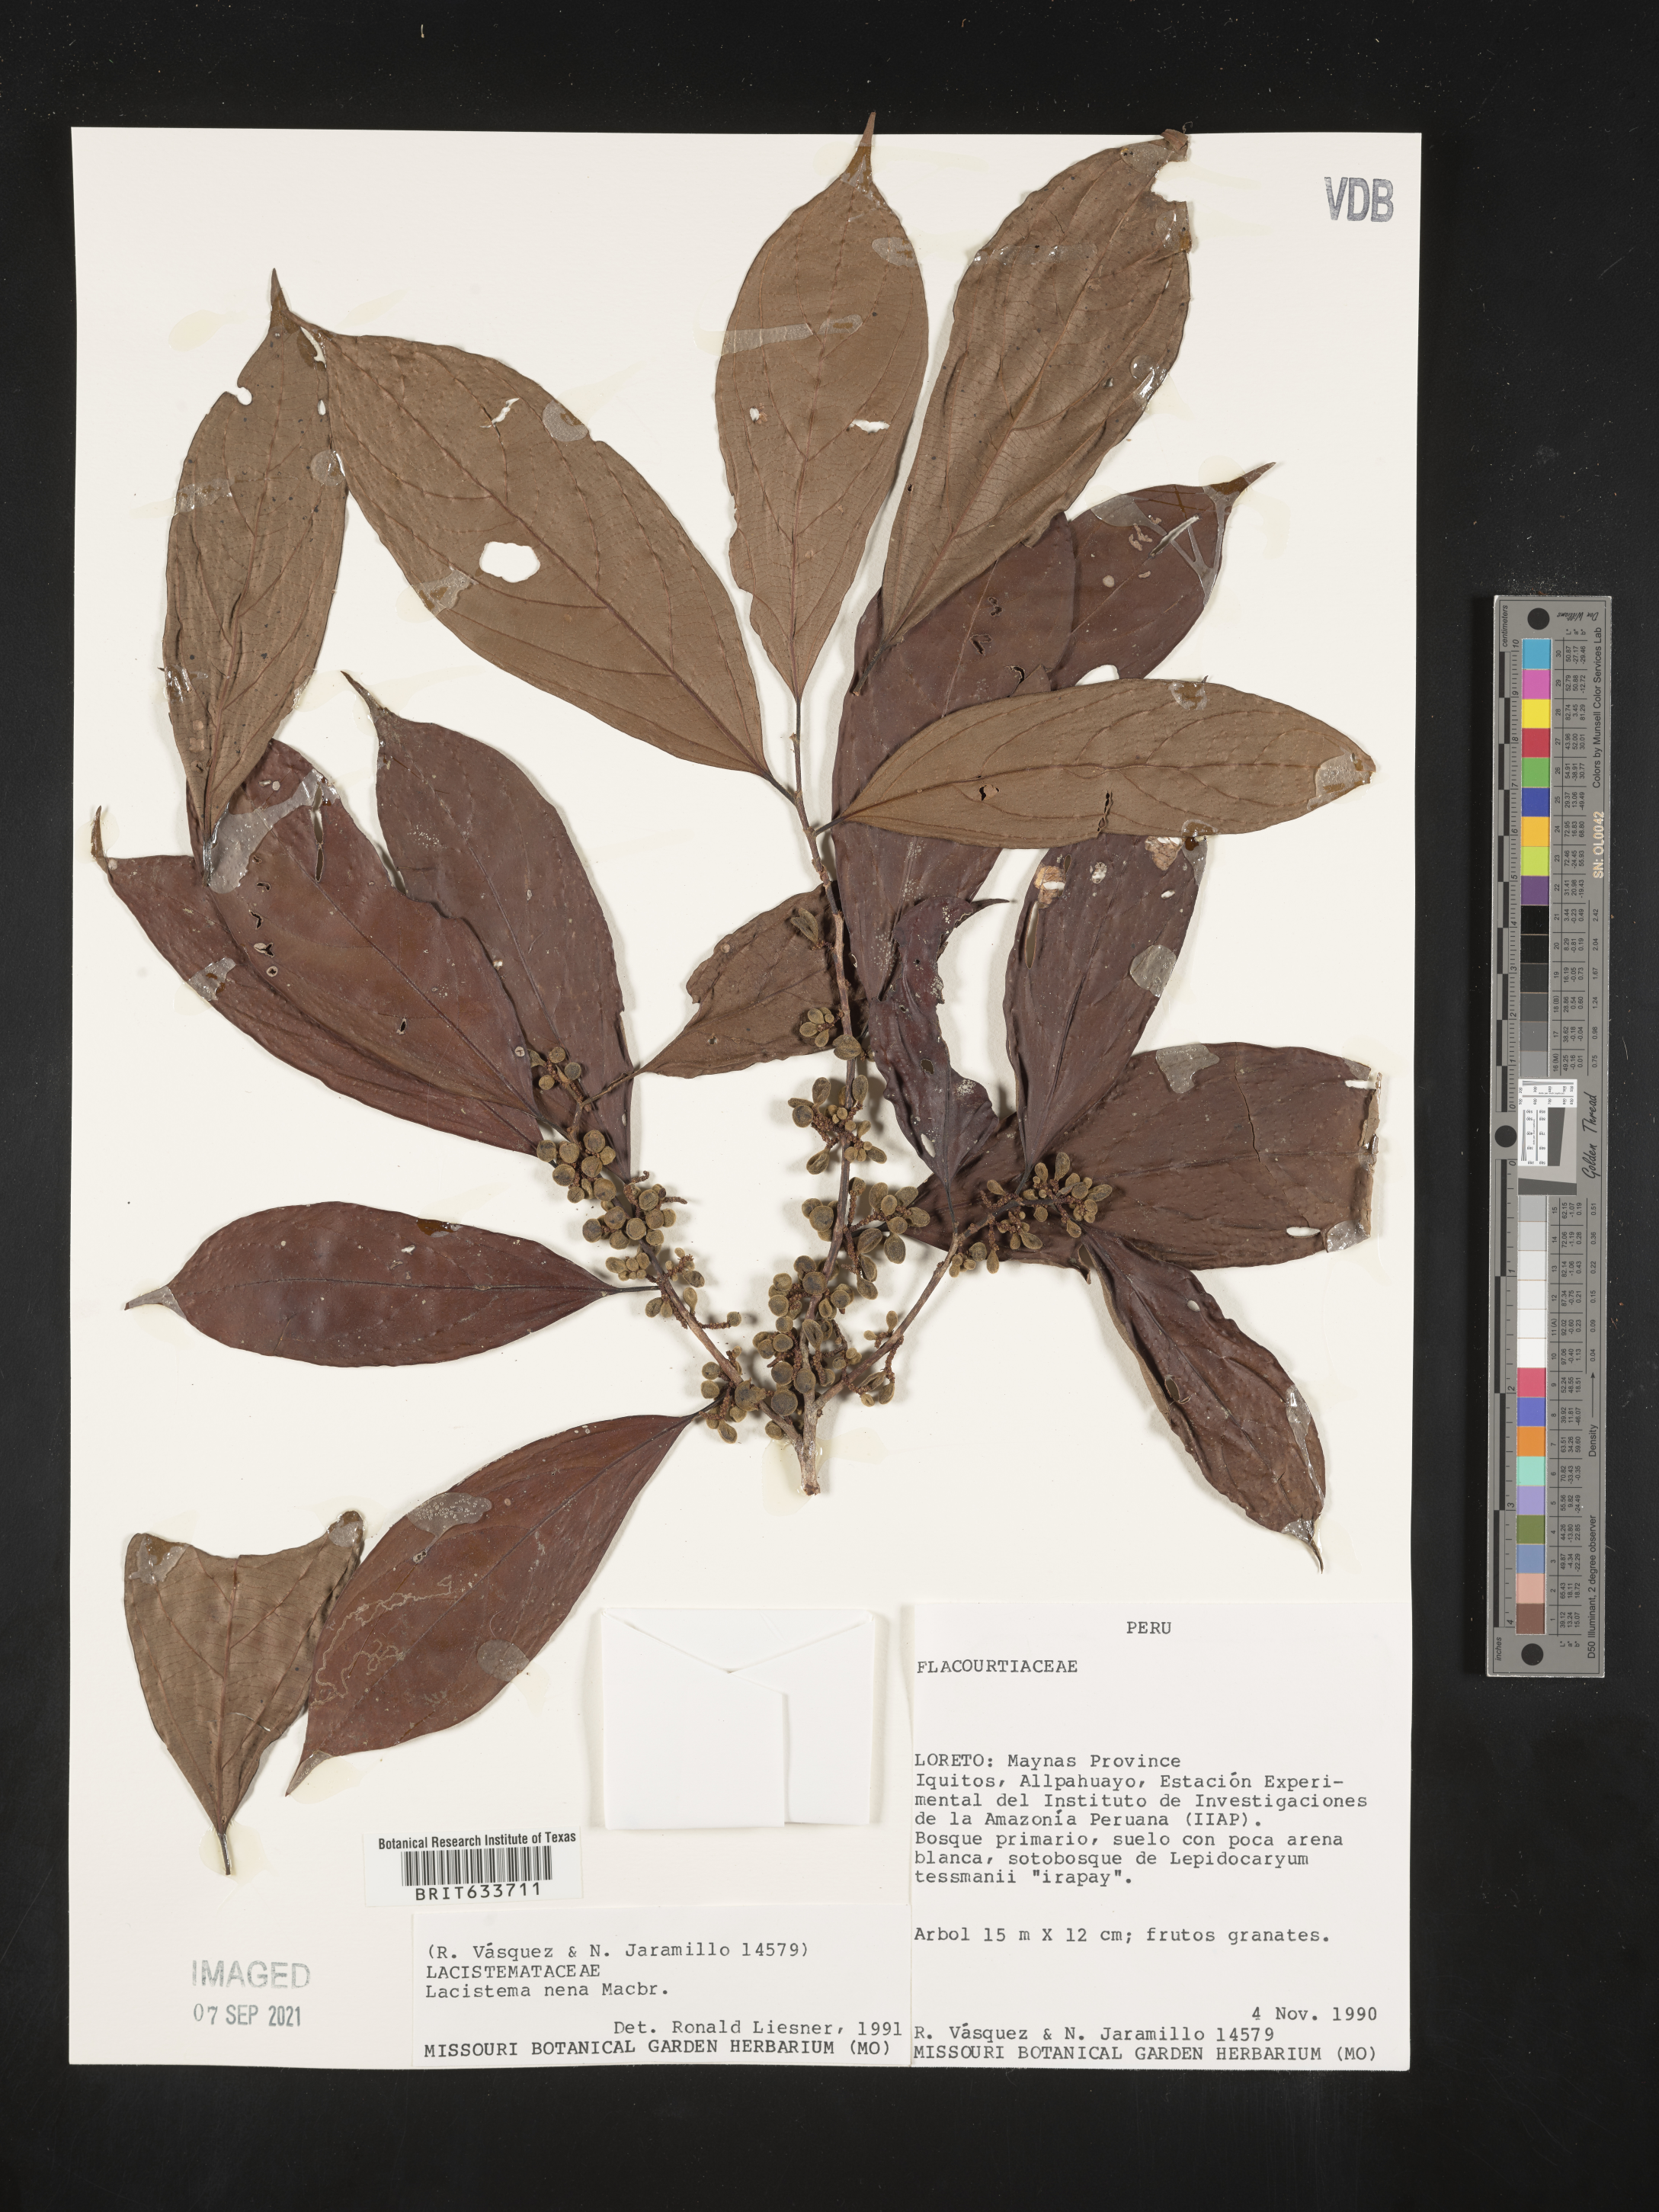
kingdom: Plantae
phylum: Tracheophyta
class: Magnoliopsida
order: Malpighiales
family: Lacistemataceae
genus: Lacistema
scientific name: Lacistema
